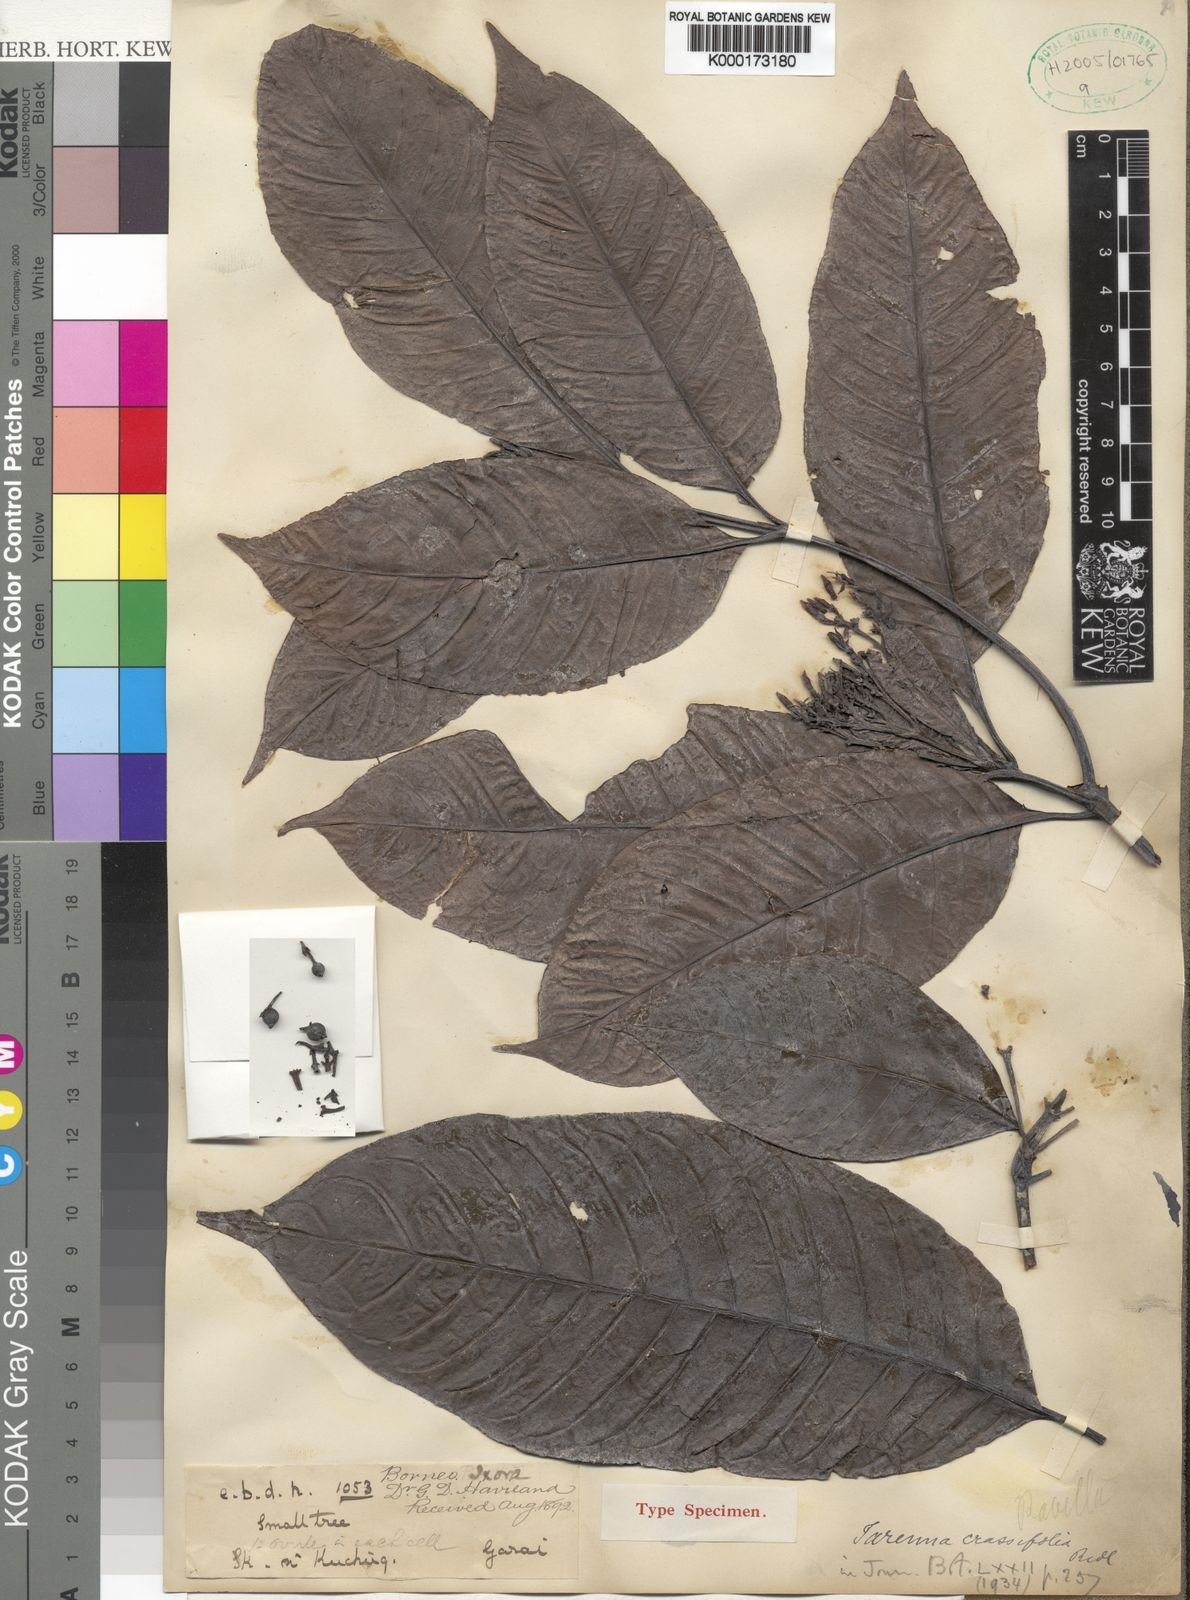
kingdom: Plantae
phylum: Tracheophyta
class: Magnoliopsida
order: Gentianales
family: Rubiaceae
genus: Tarenna
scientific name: Tarenna crassifolia
